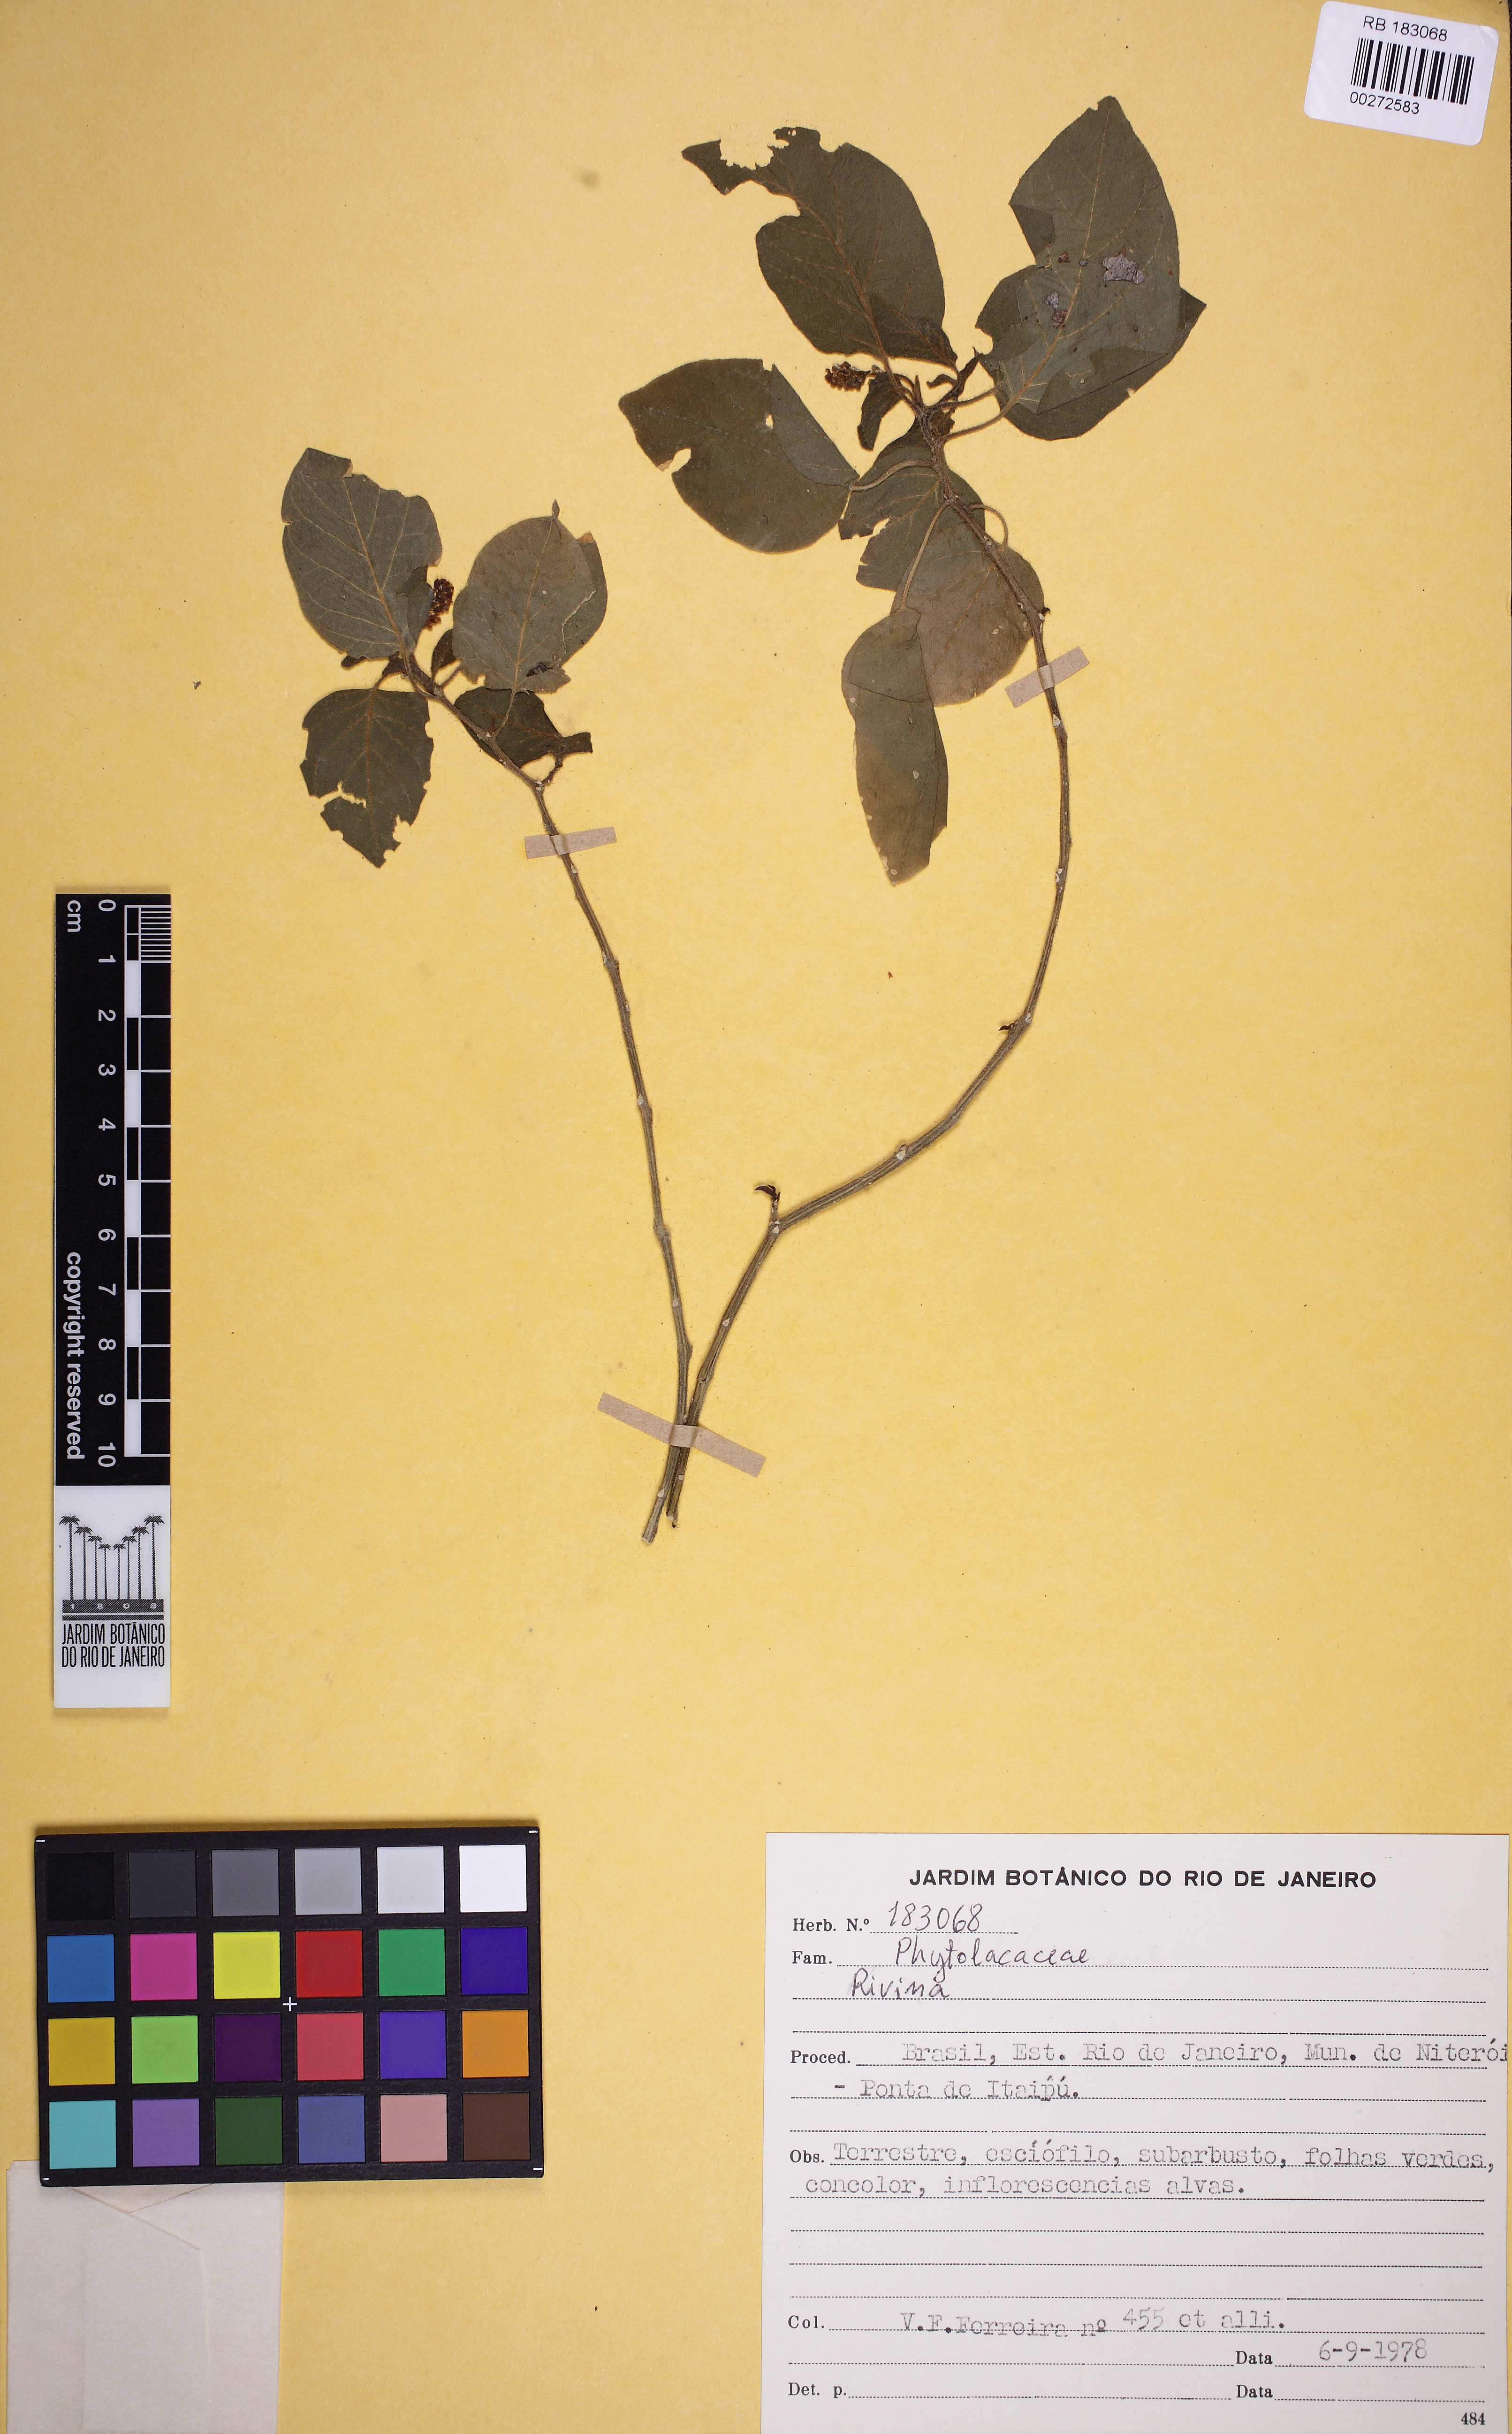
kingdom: Plantae
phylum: Tracheophyta
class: Magnoliopsida
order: Caryophyllales
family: Phytolaccaceae
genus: Rivina
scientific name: Rivina
